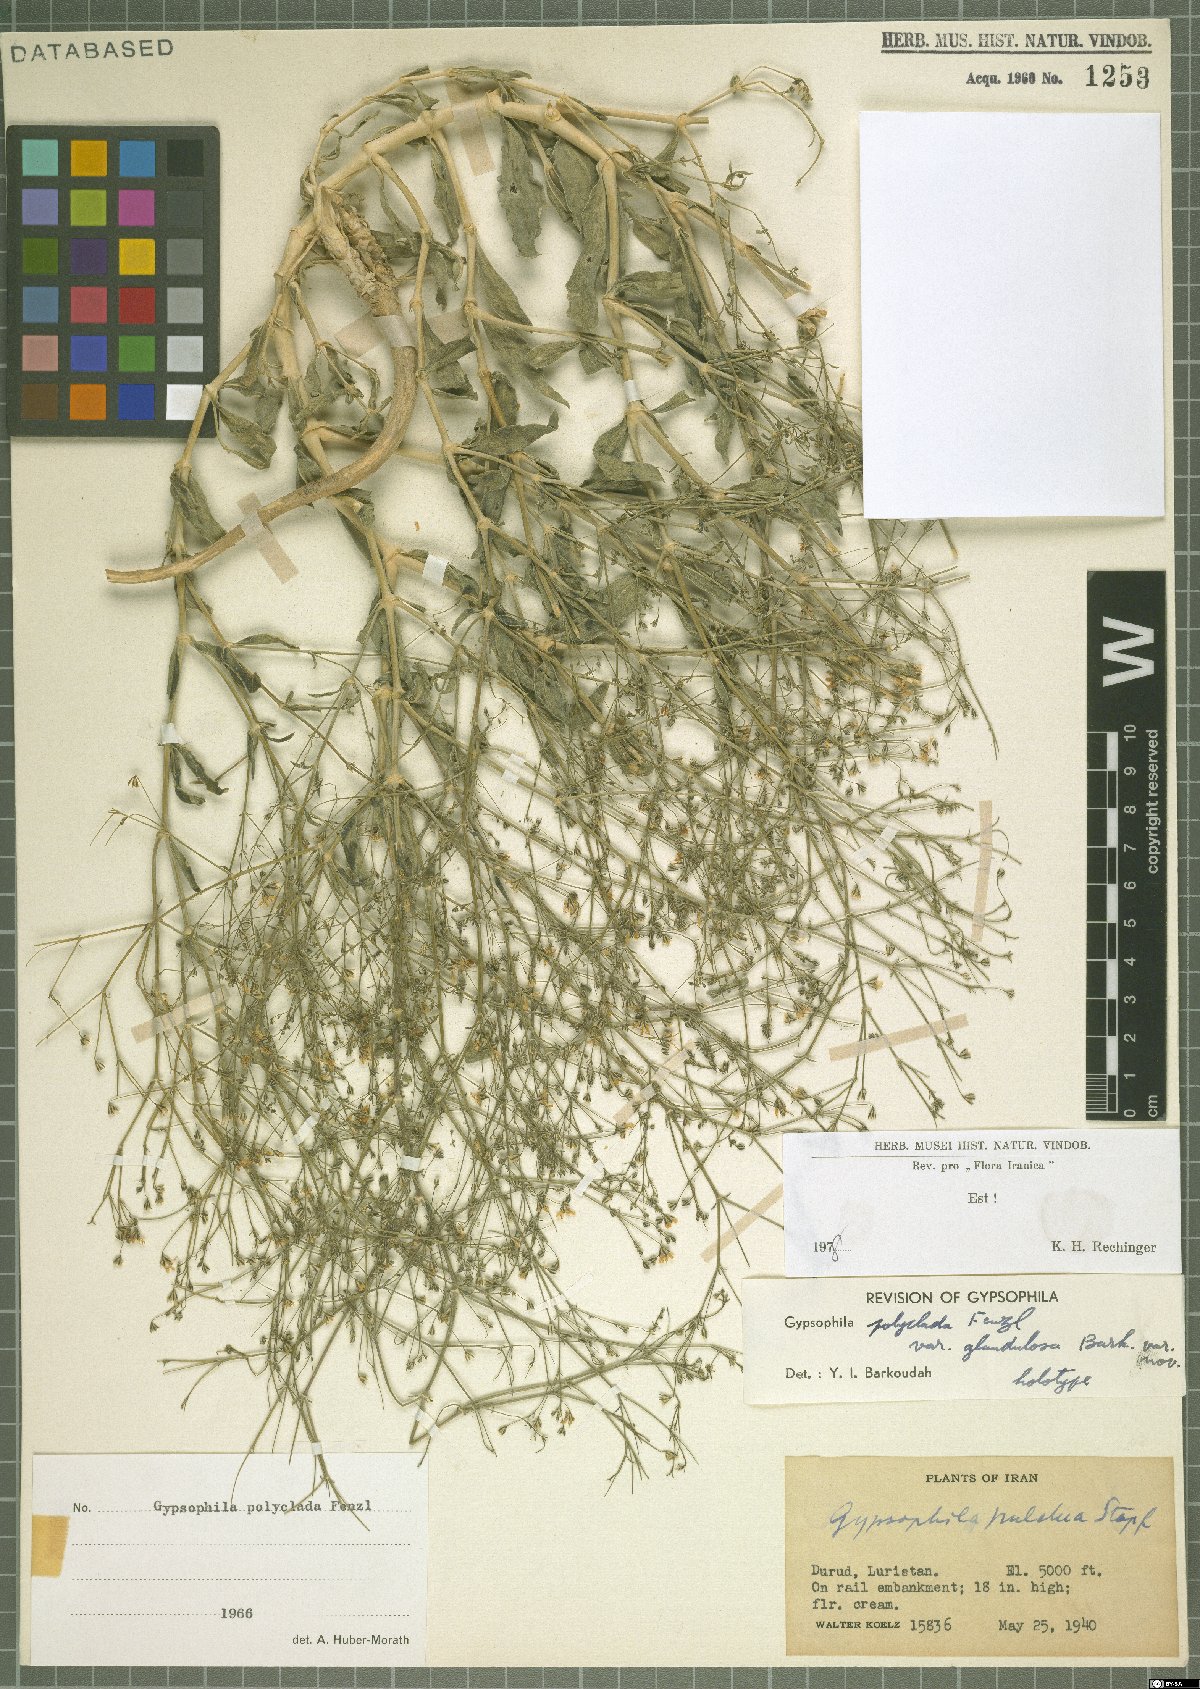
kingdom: Plantae
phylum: Tracheophyta
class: Magnoliopsida
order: Caryophyllales
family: Caryophyllaceae
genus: Gypsophila
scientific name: Gypsophila polyclada
